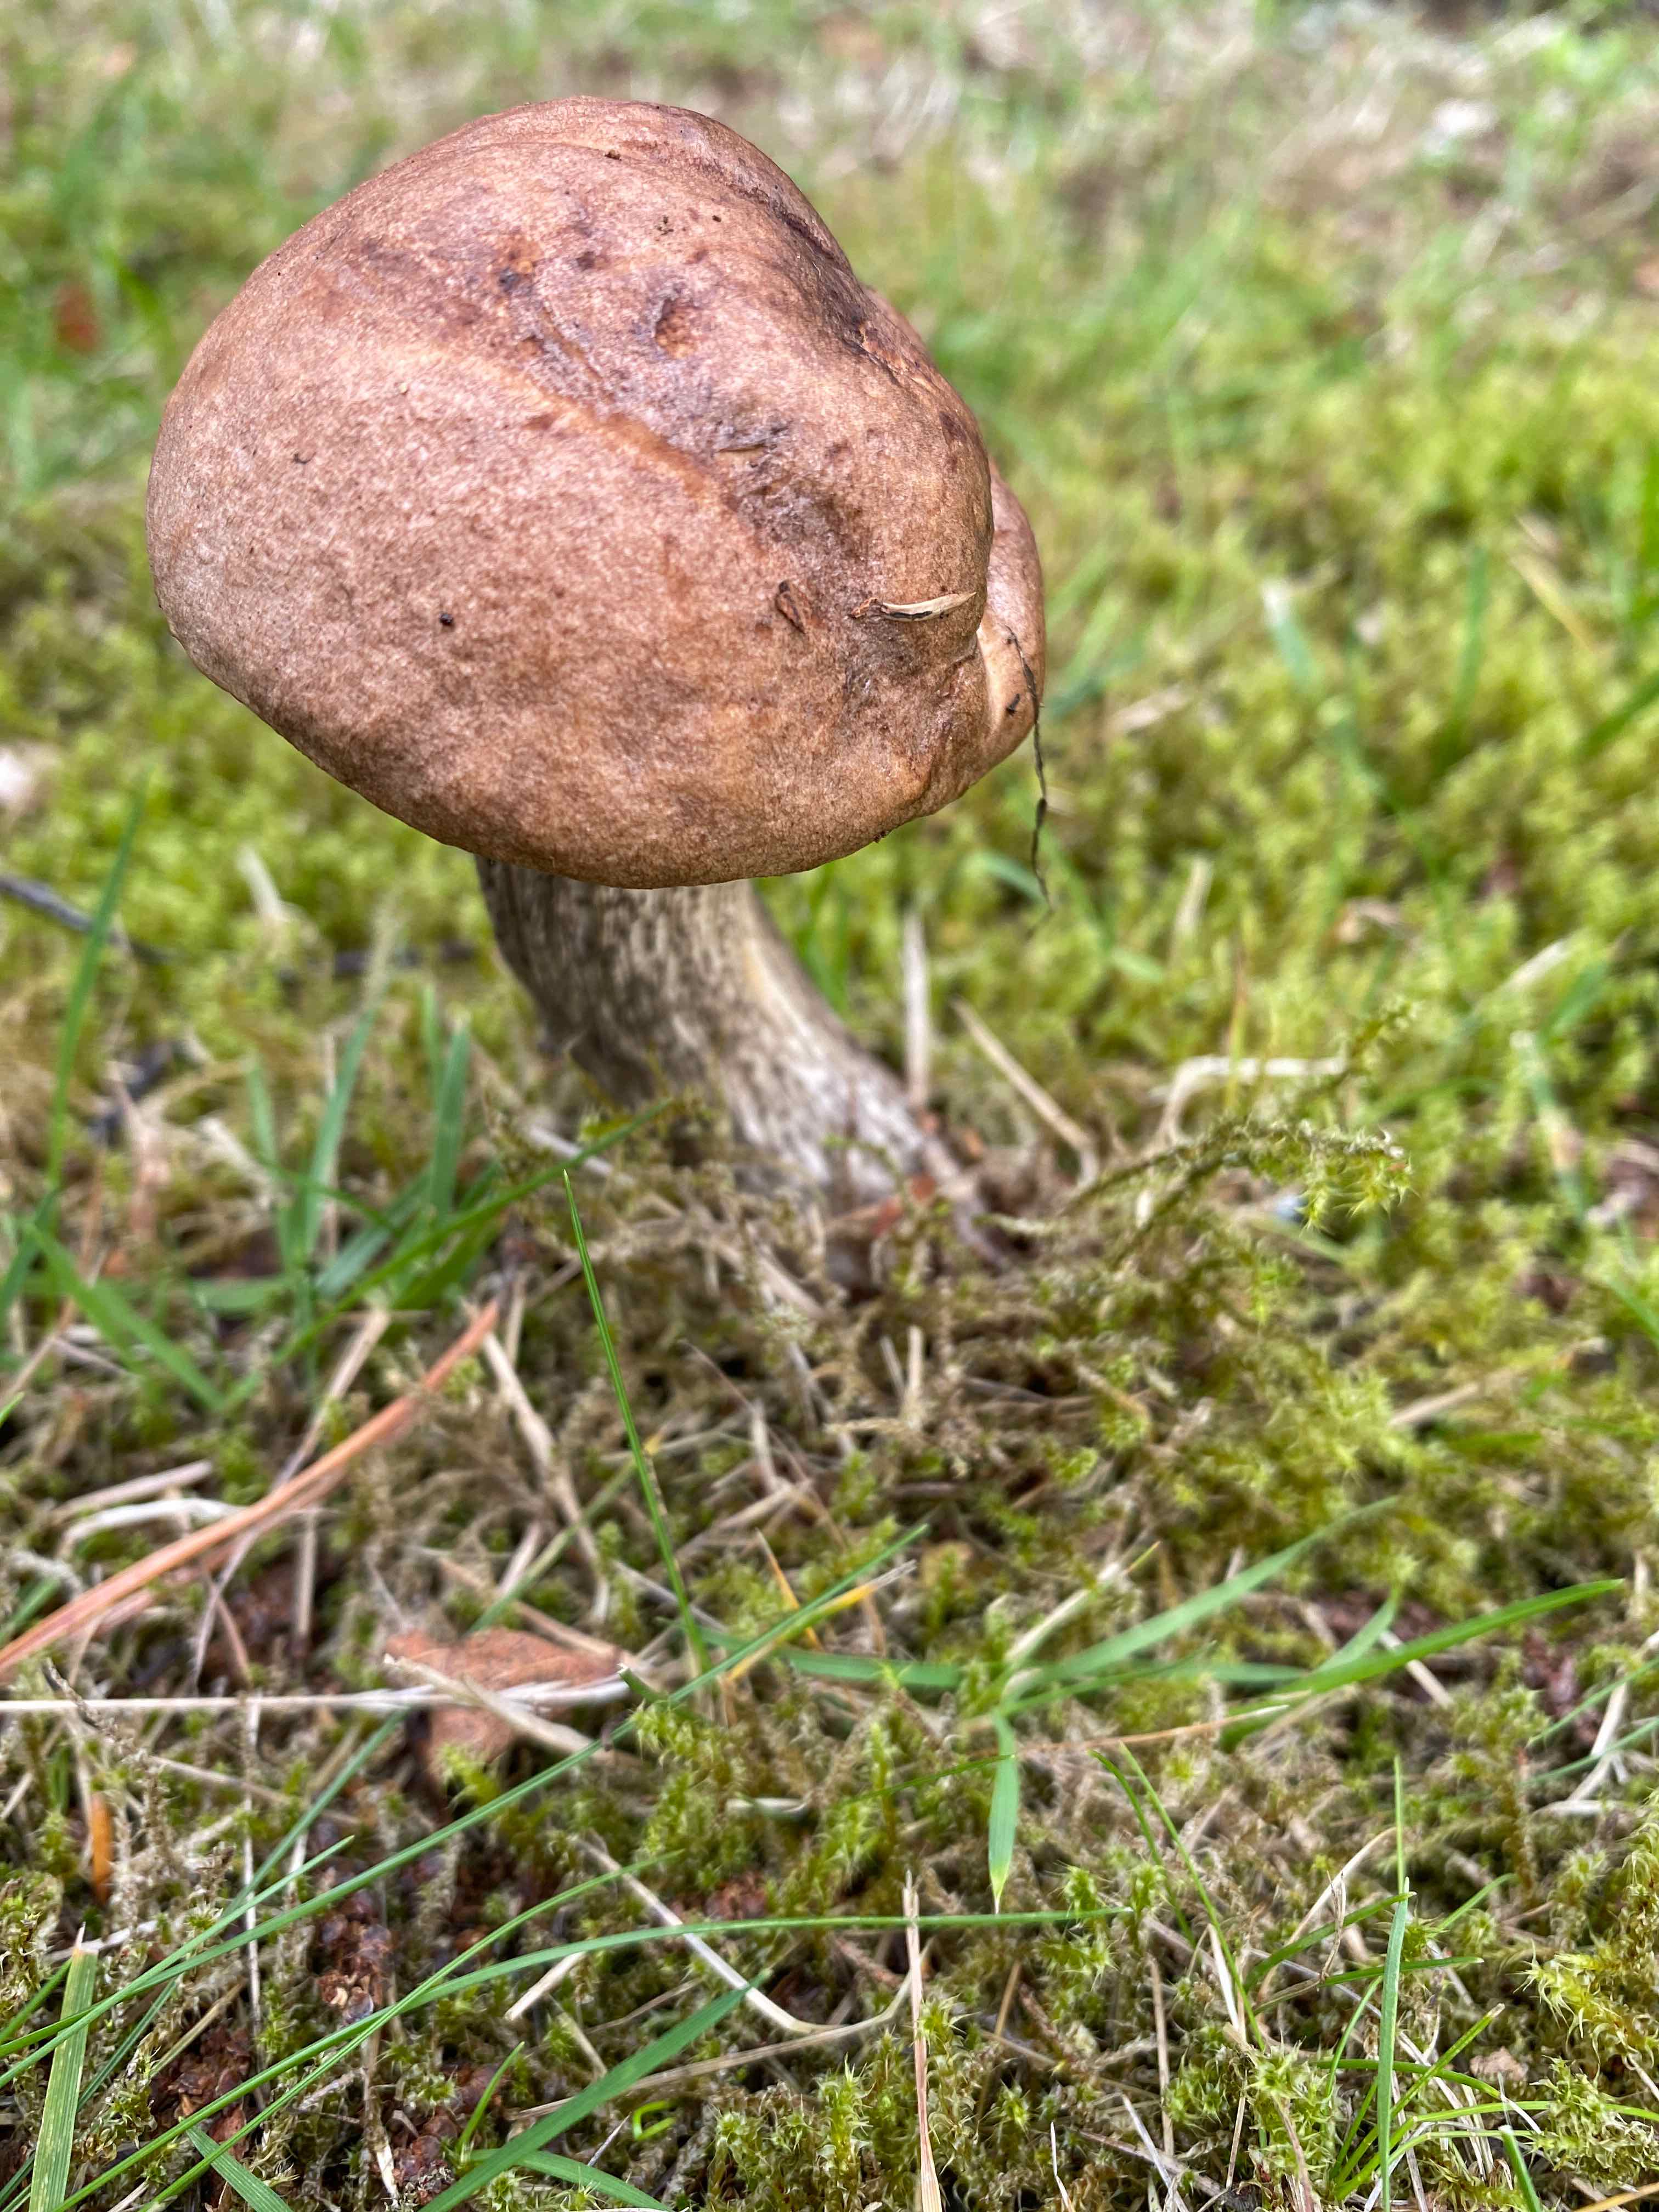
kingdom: Fungi
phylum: Basidiomycota
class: Agaricomycetes
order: Boletales
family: Boletaceae
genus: Leccinum
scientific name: Leccinum scabrum
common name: brun skælrørhat
